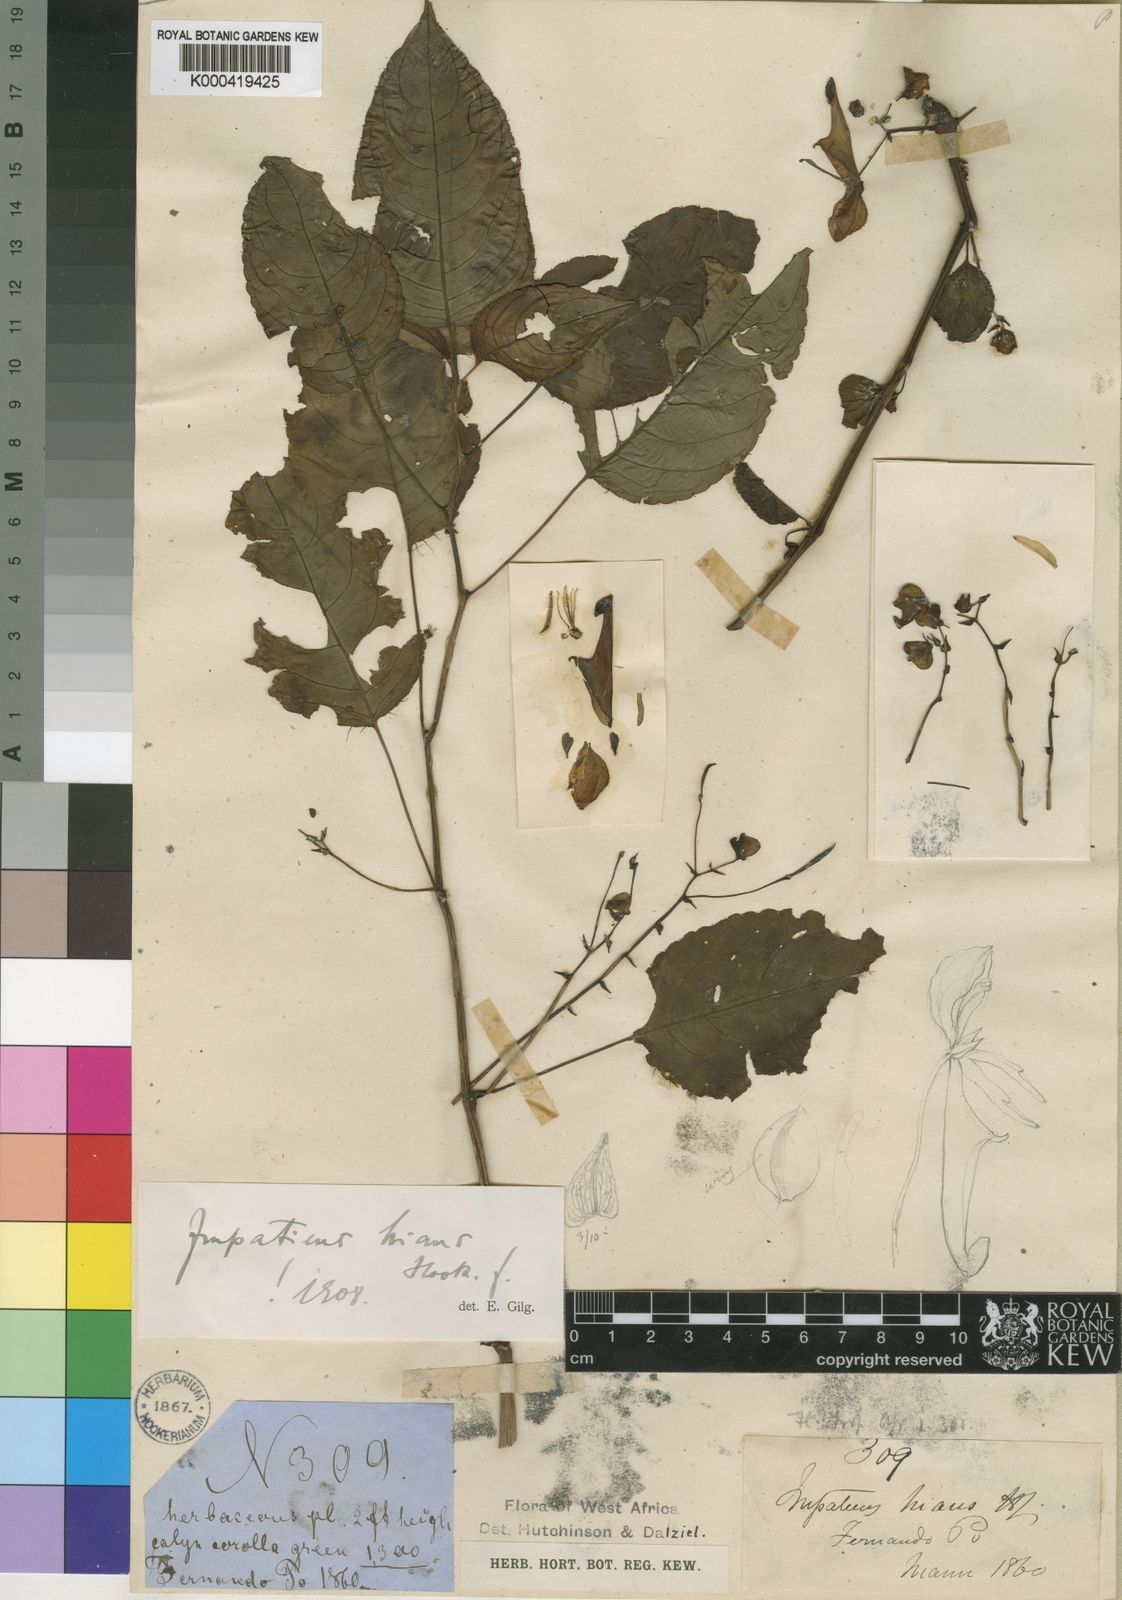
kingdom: Plantae
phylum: Tracheophyta
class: Magnoliopsida
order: Ericales
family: Balsaminaceae
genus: Impatiens
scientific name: Impatiens hians
